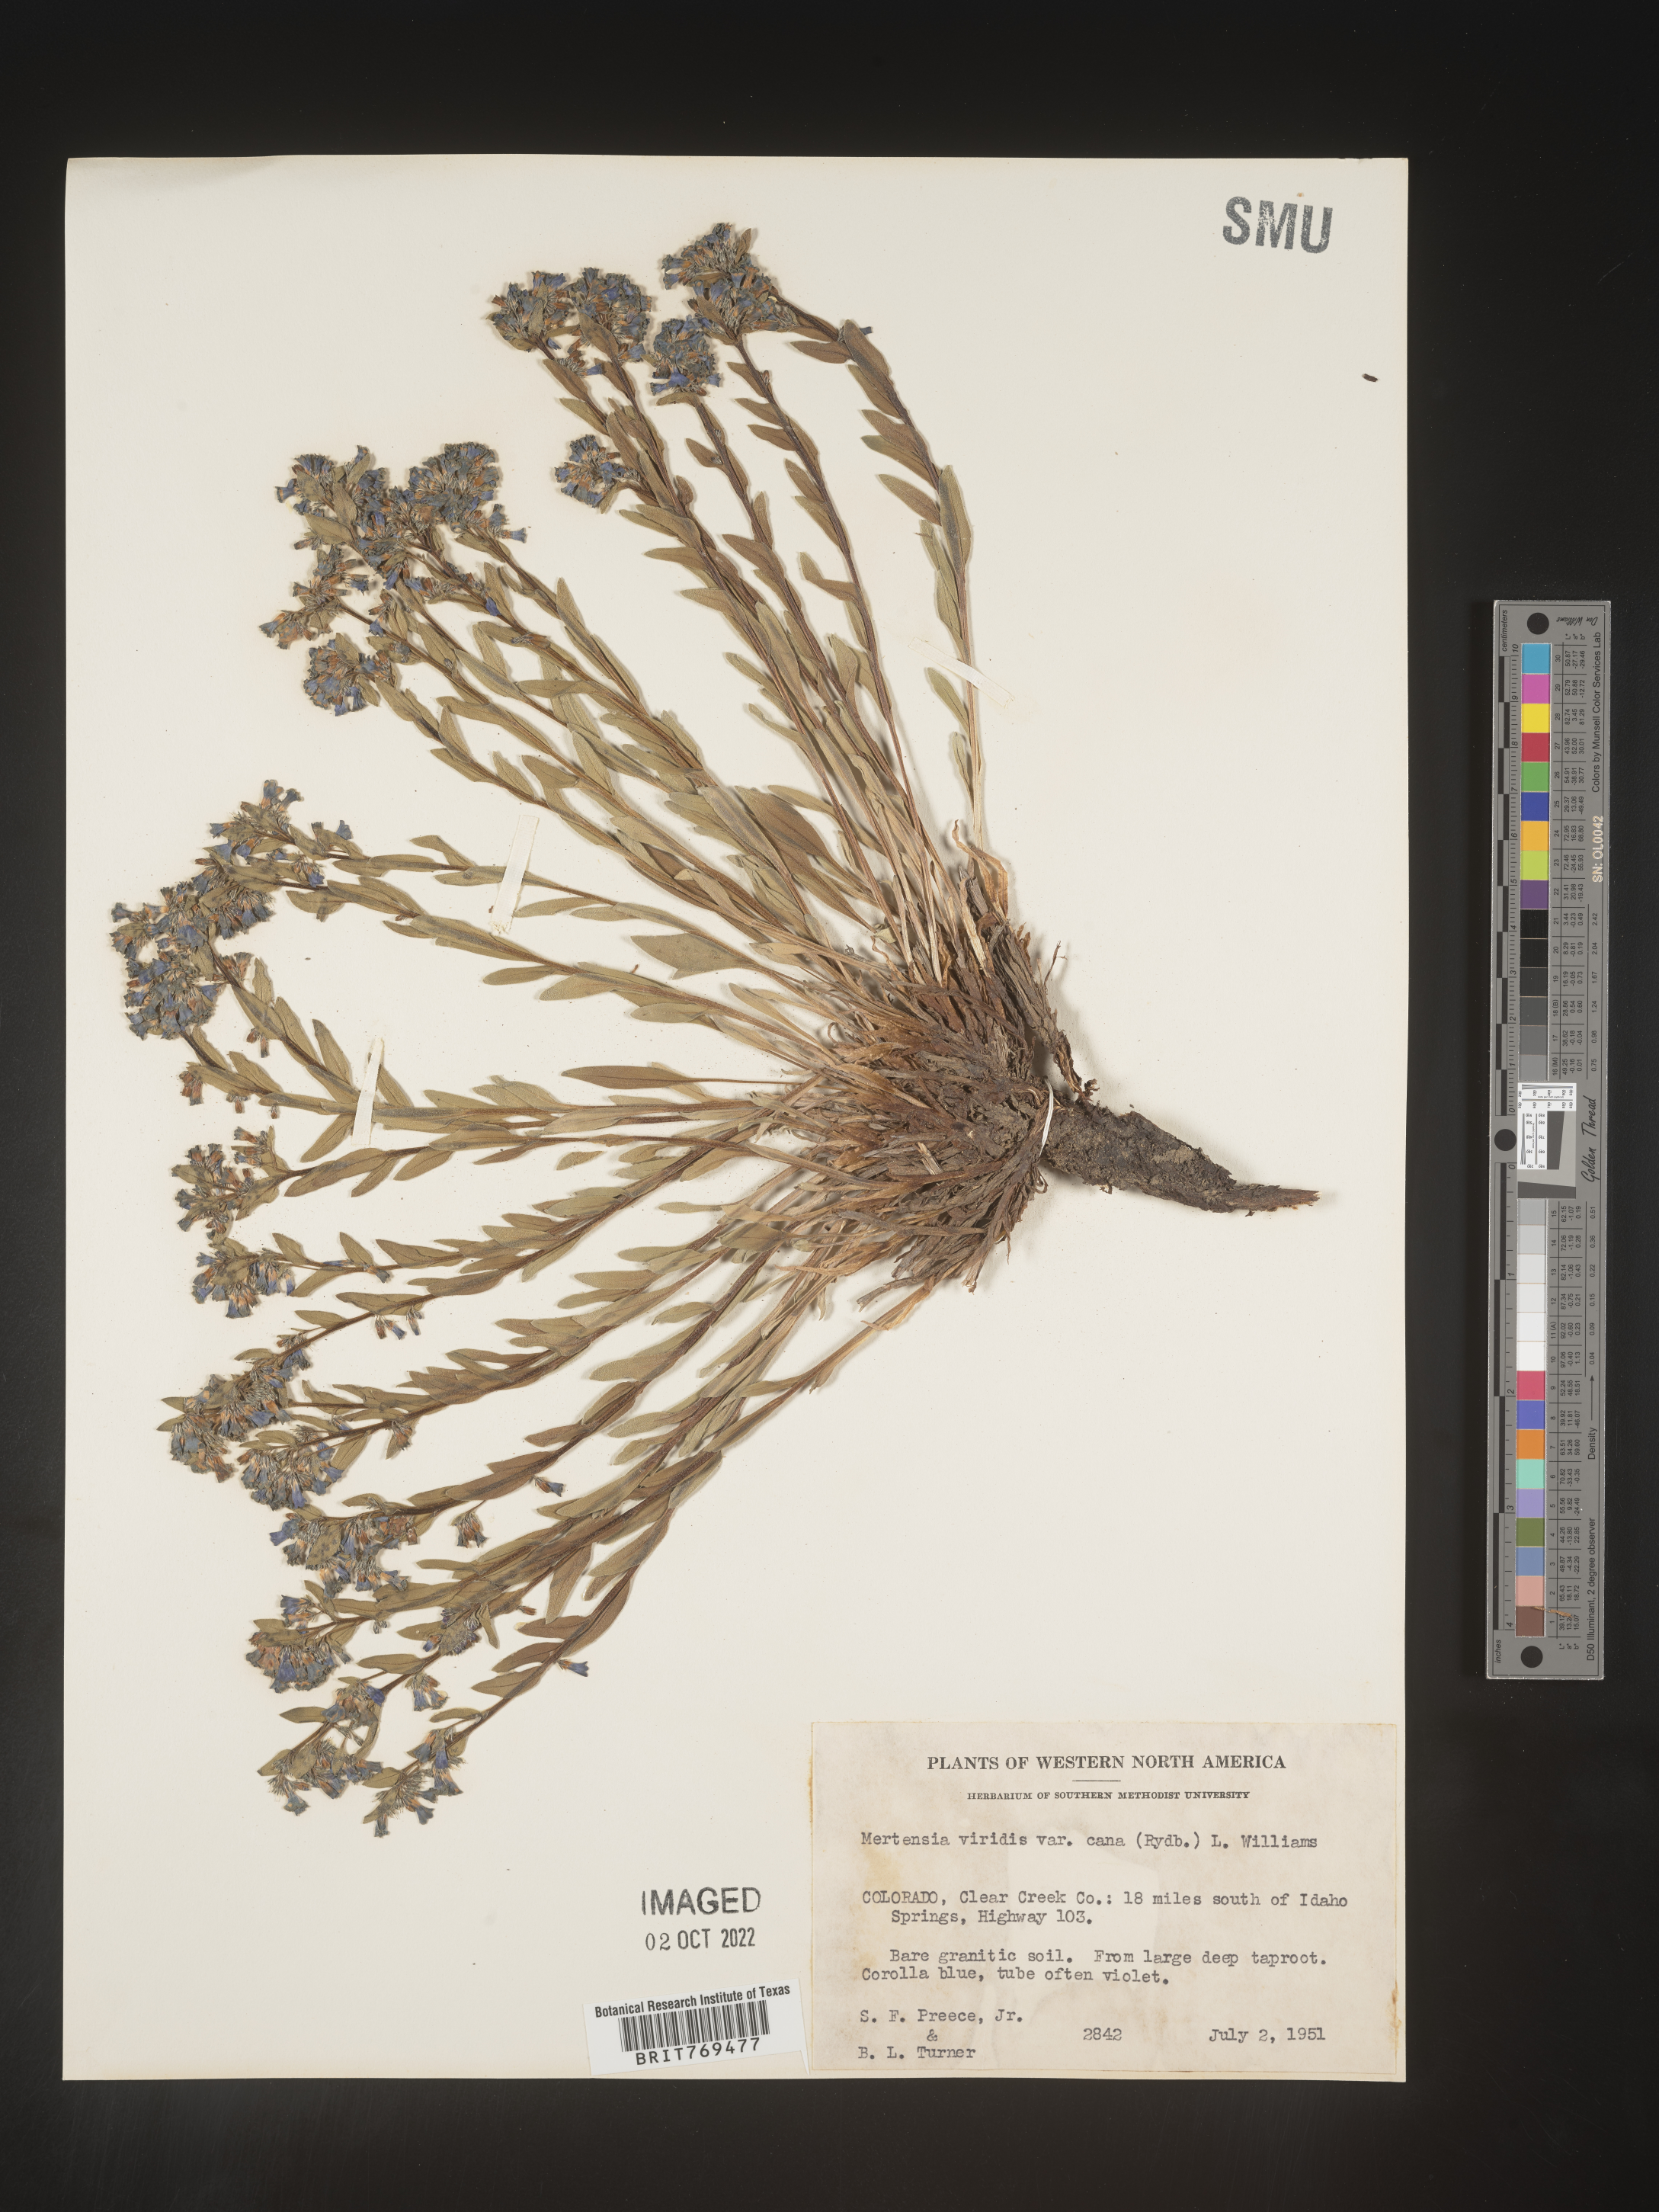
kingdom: Plantae
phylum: Tracheophyta
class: Magnoliopsida
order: Boraginales
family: Boraginaceae
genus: Mertensia
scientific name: Mertensia viridis
